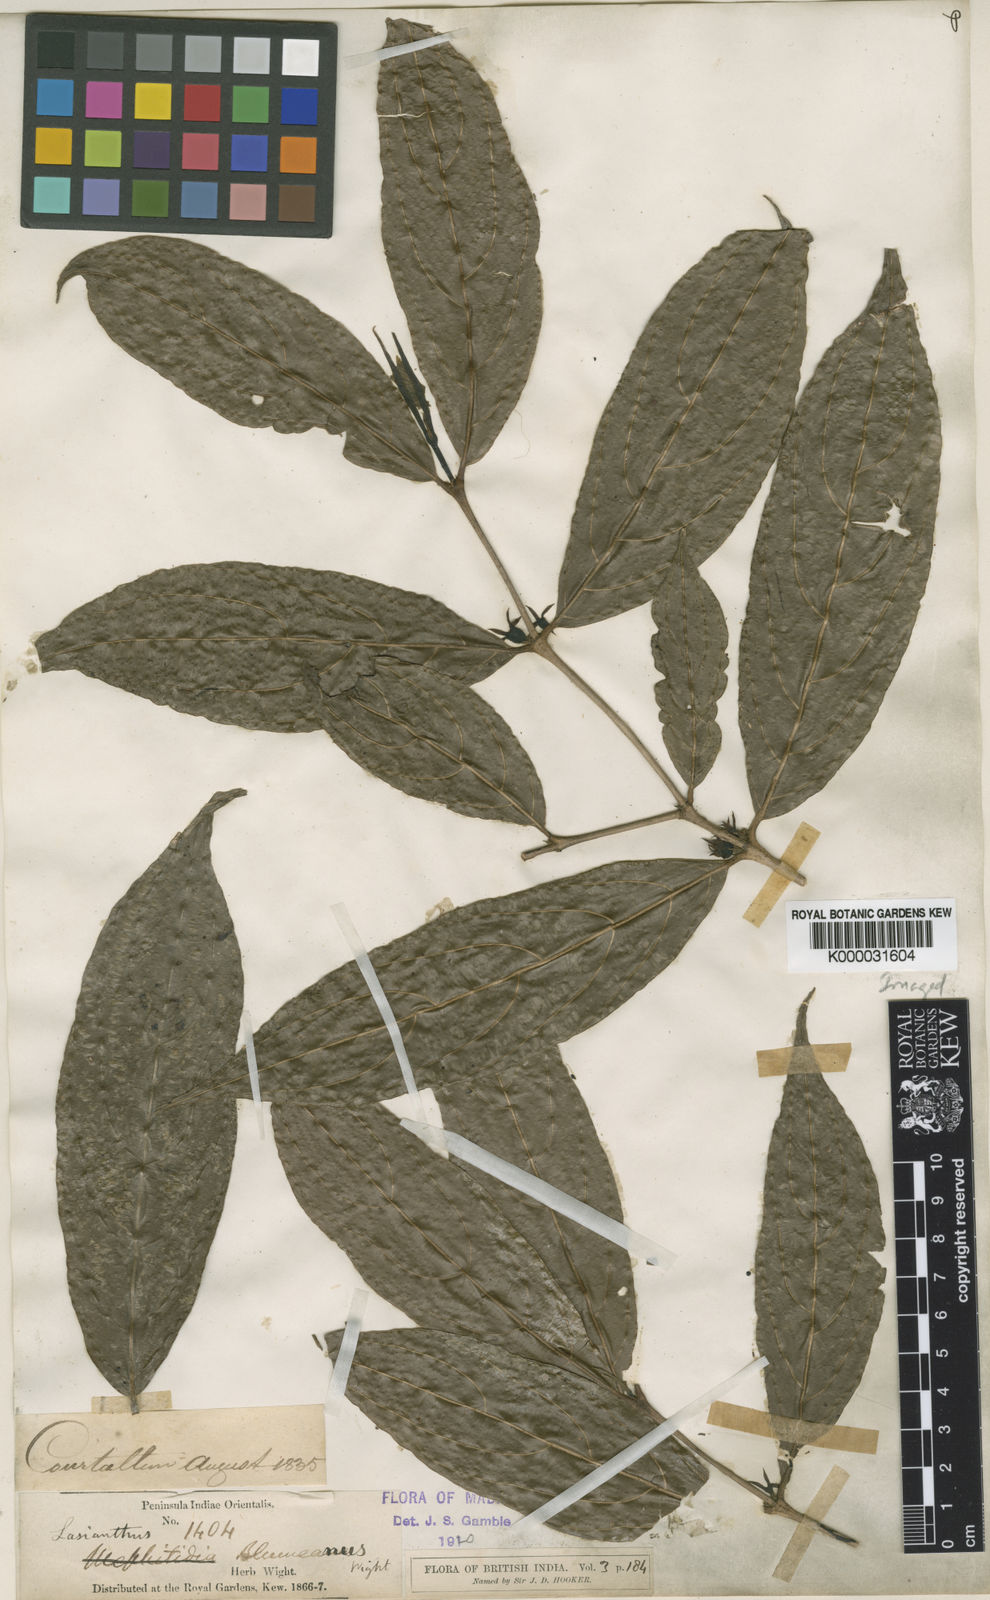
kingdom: Plantae
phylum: Tracheophyta
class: Magnoliopsida
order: Gentianales
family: Rubiaceae
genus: Lasianthus
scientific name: Lasianthus blumeanus
